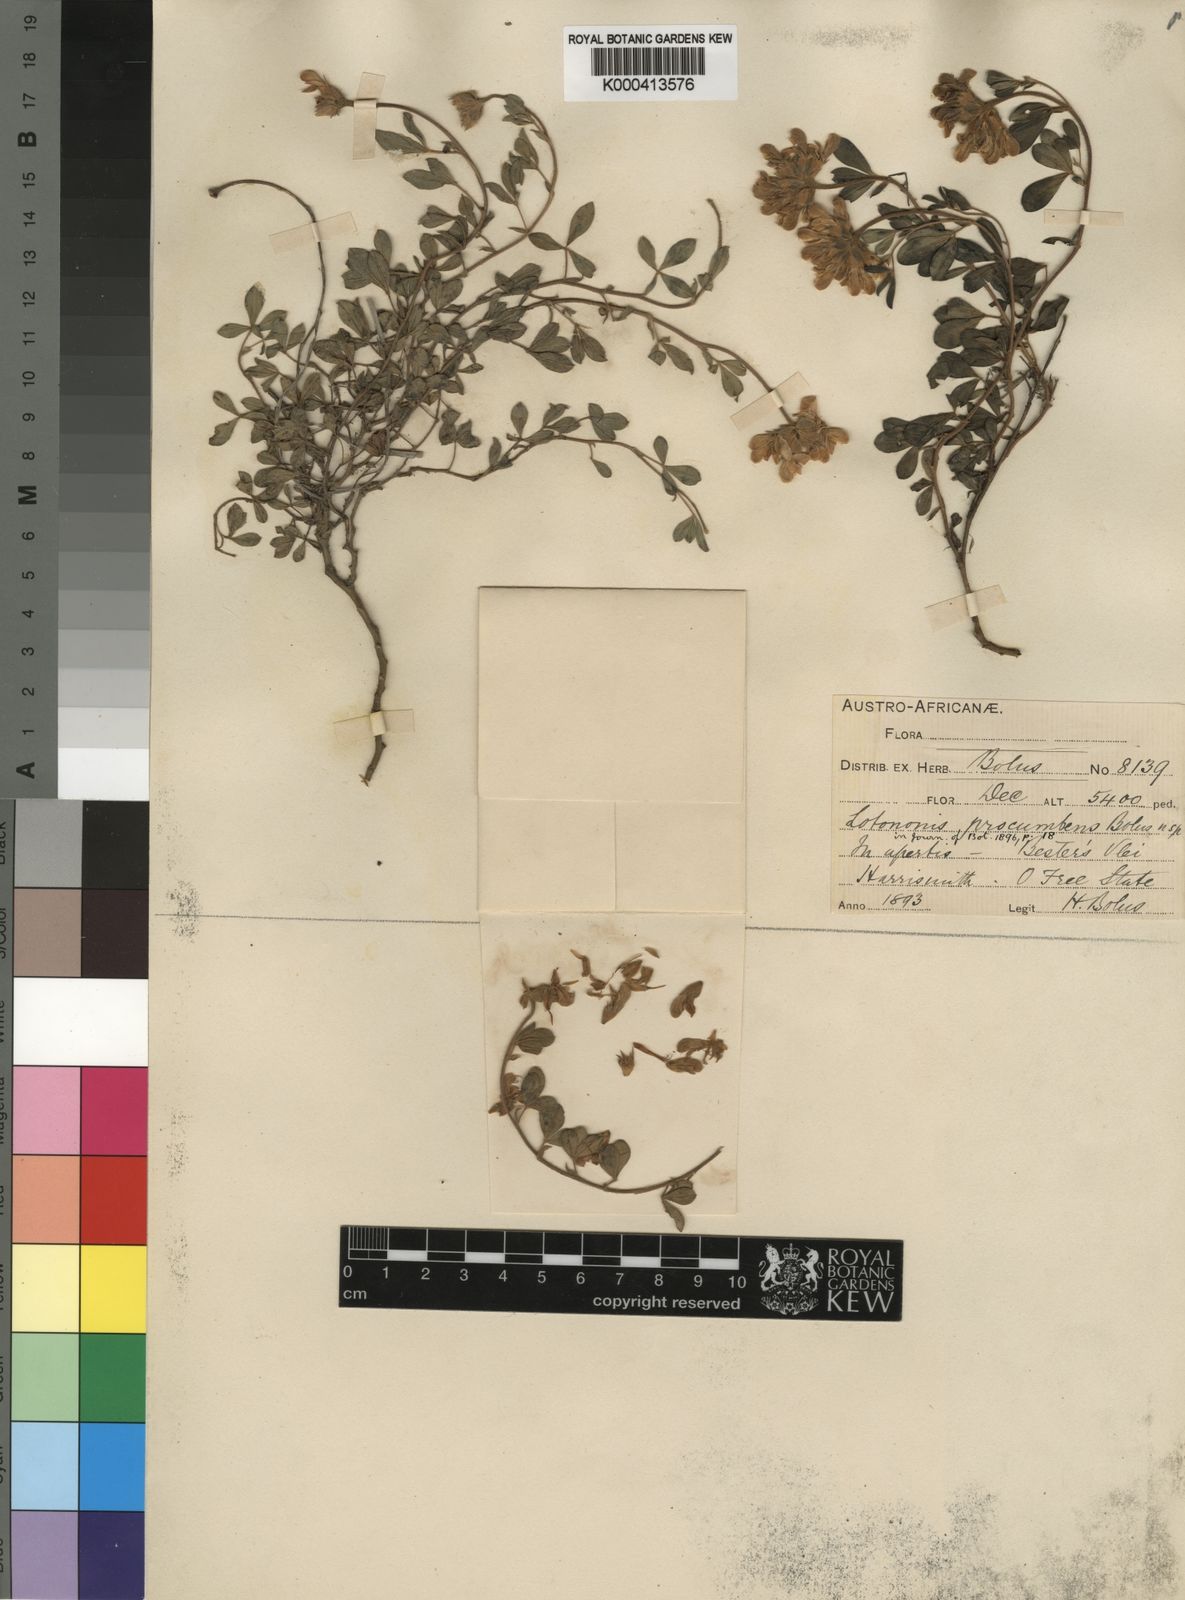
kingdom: Plantae
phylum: Tracheophyta
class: Magnoliopsida
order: Fabales
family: Fabaceae
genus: Leobordea
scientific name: Leobordea procumbens
